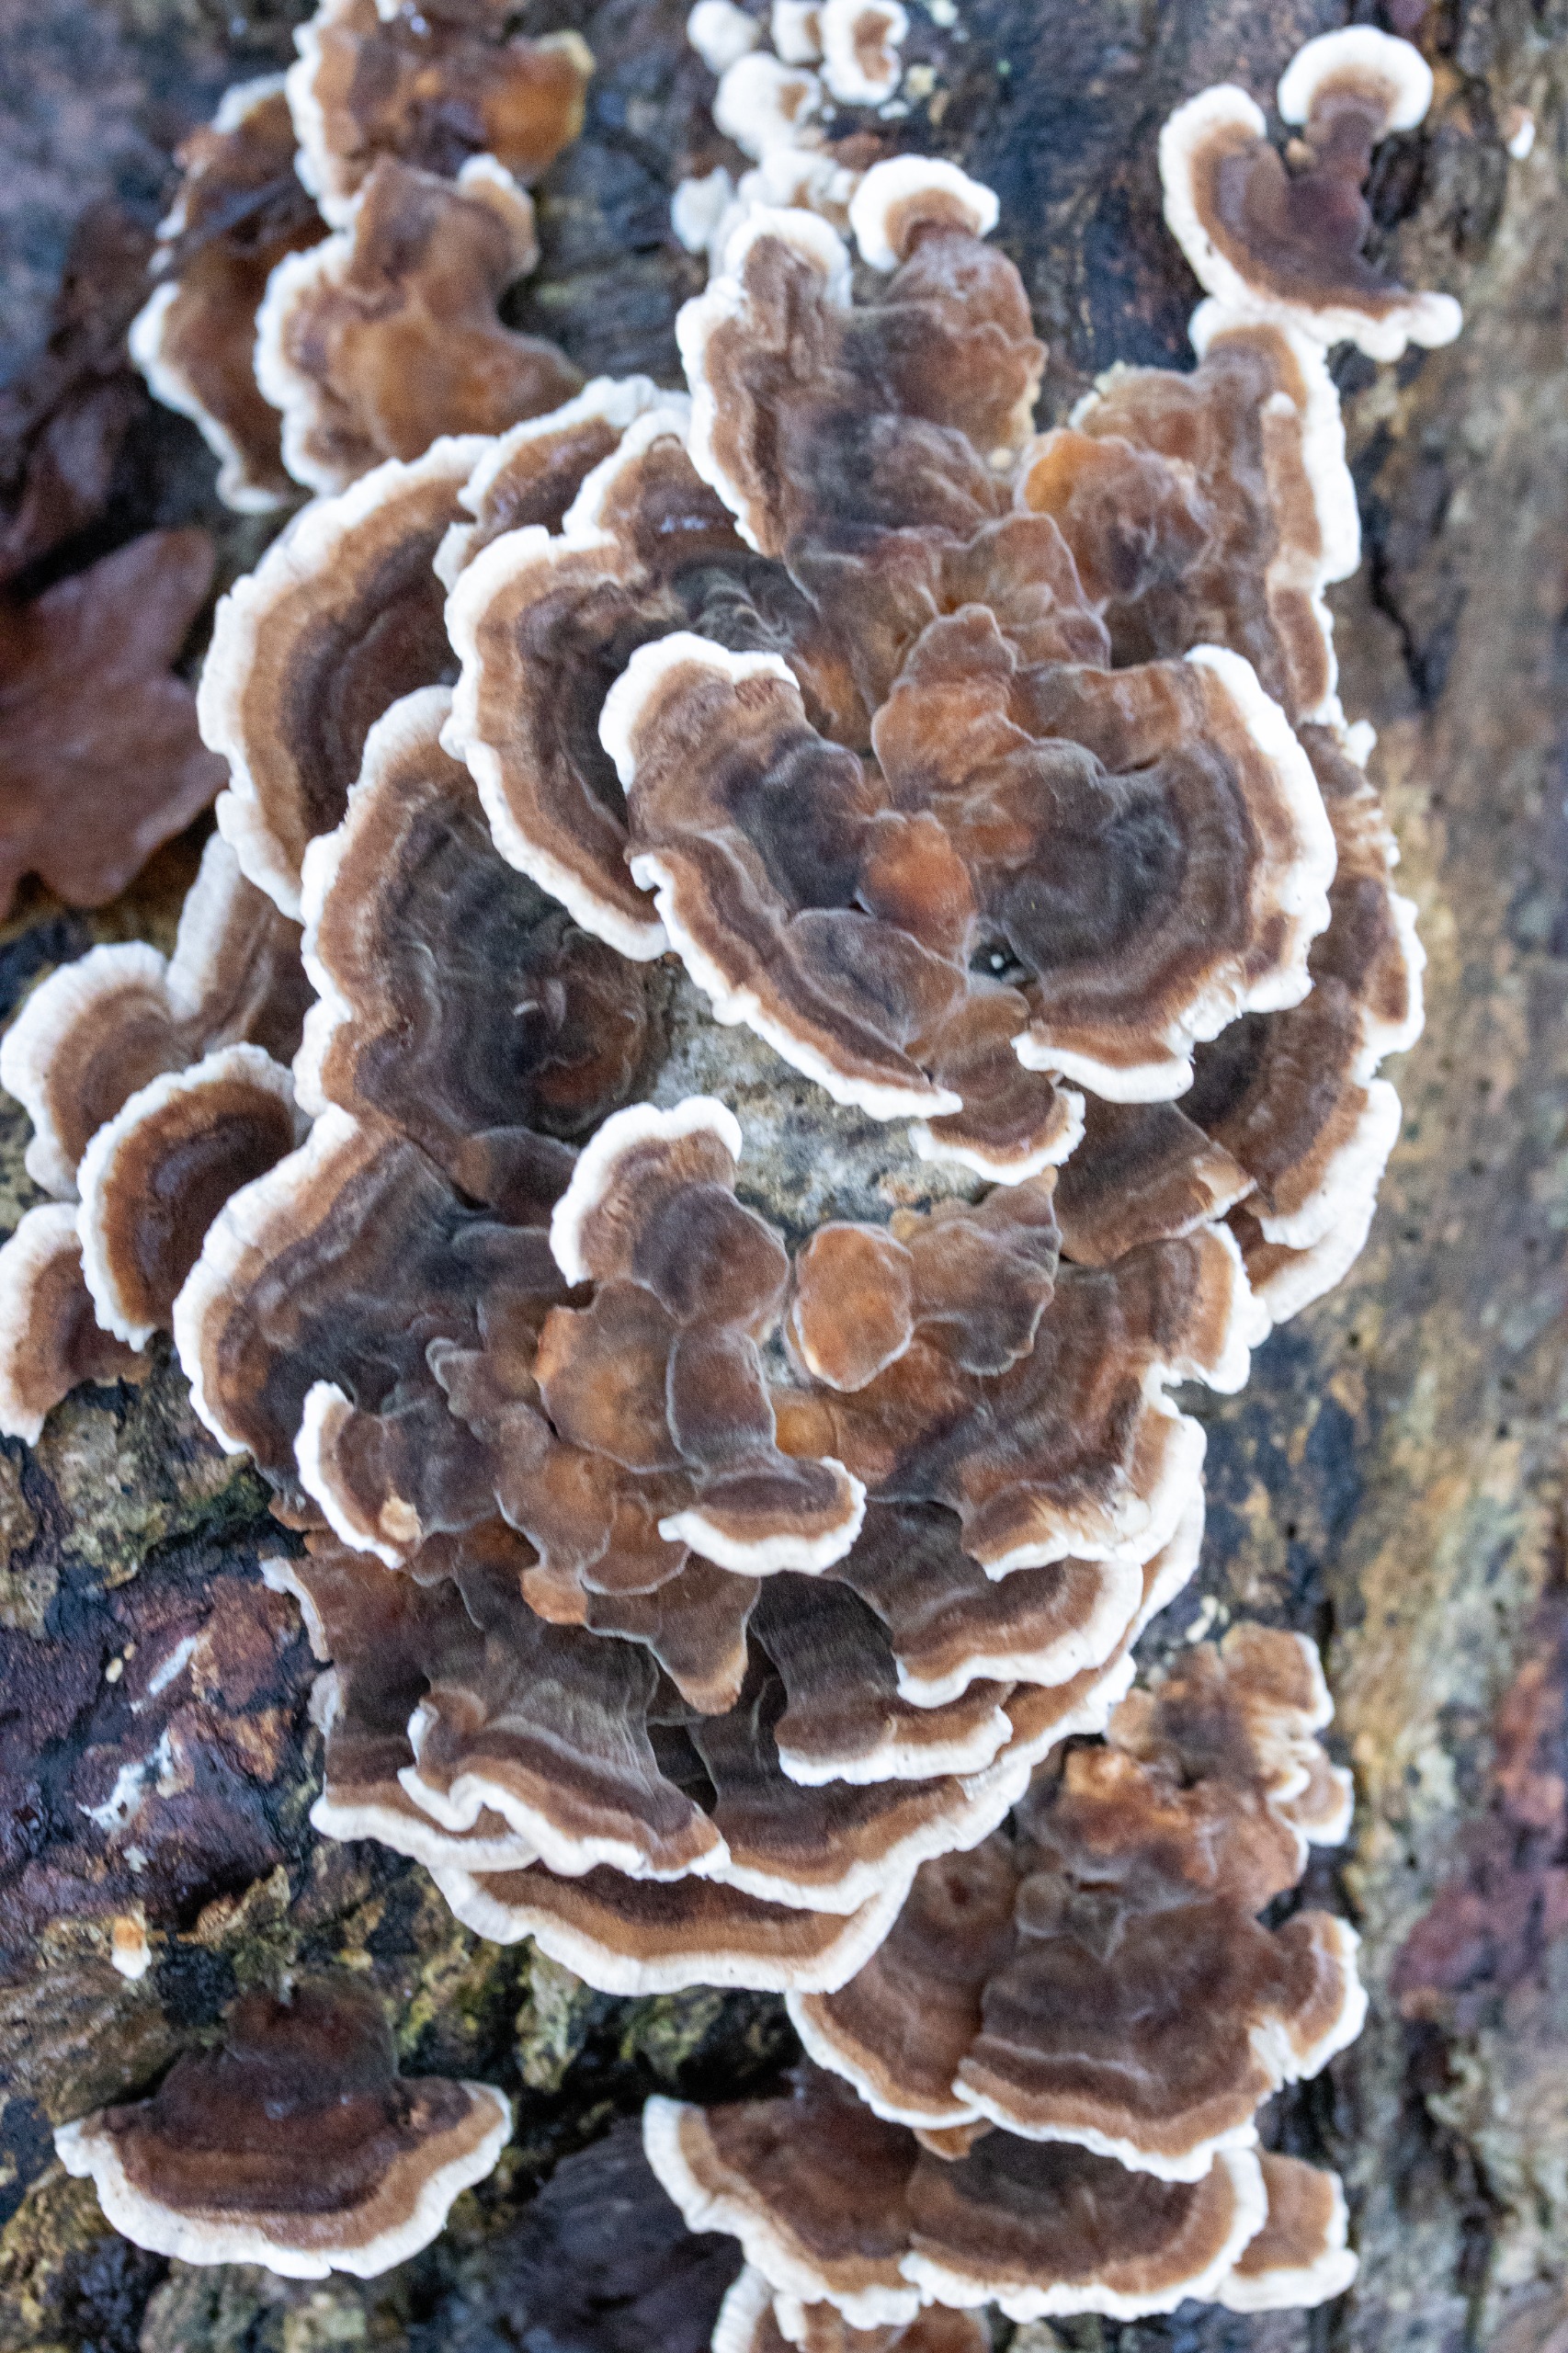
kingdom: Fungi
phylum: Basidiomycota
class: Agaricomycetes
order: Polyporales
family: Polyporaceae
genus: Trametes
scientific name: Trametes versicolor
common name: Broget læderporesvamp
